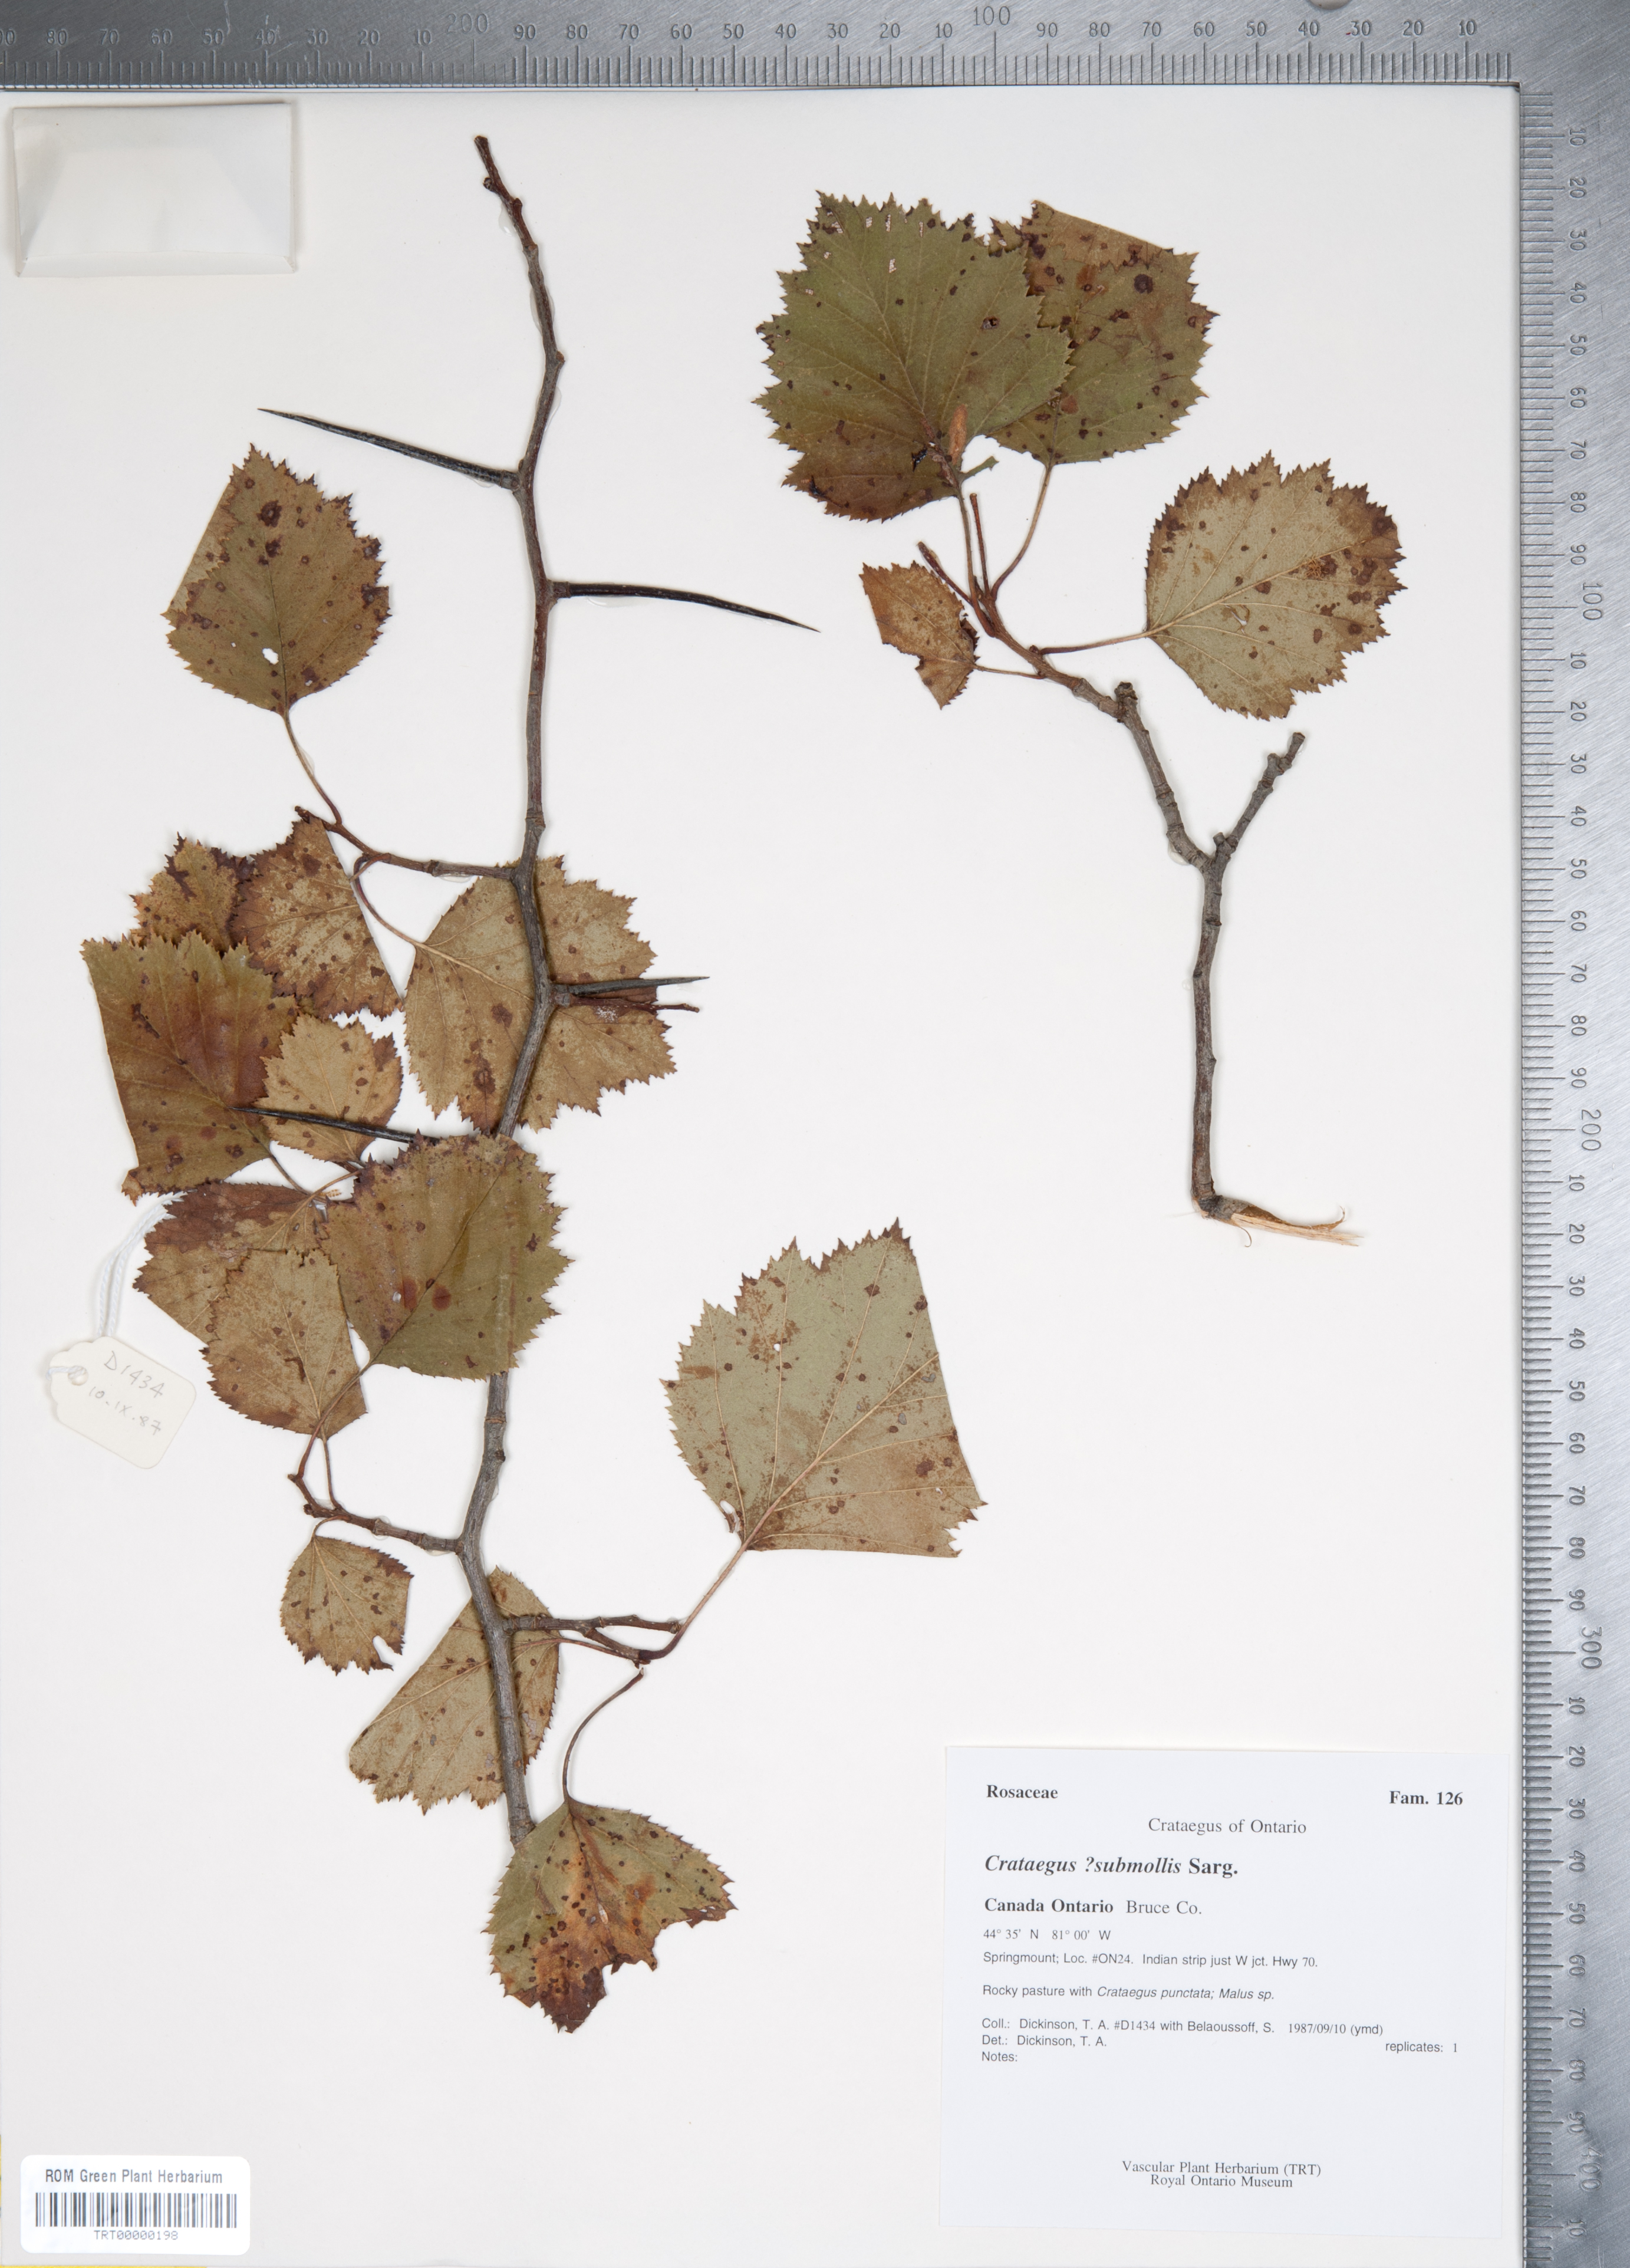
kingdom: Plantae
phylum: Tracheophyta
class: Magnoliopsida
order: Rosales
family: Rosaceae
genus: Crataegus
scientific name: Crataegus submollis
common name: Hairy cockspurthorn
